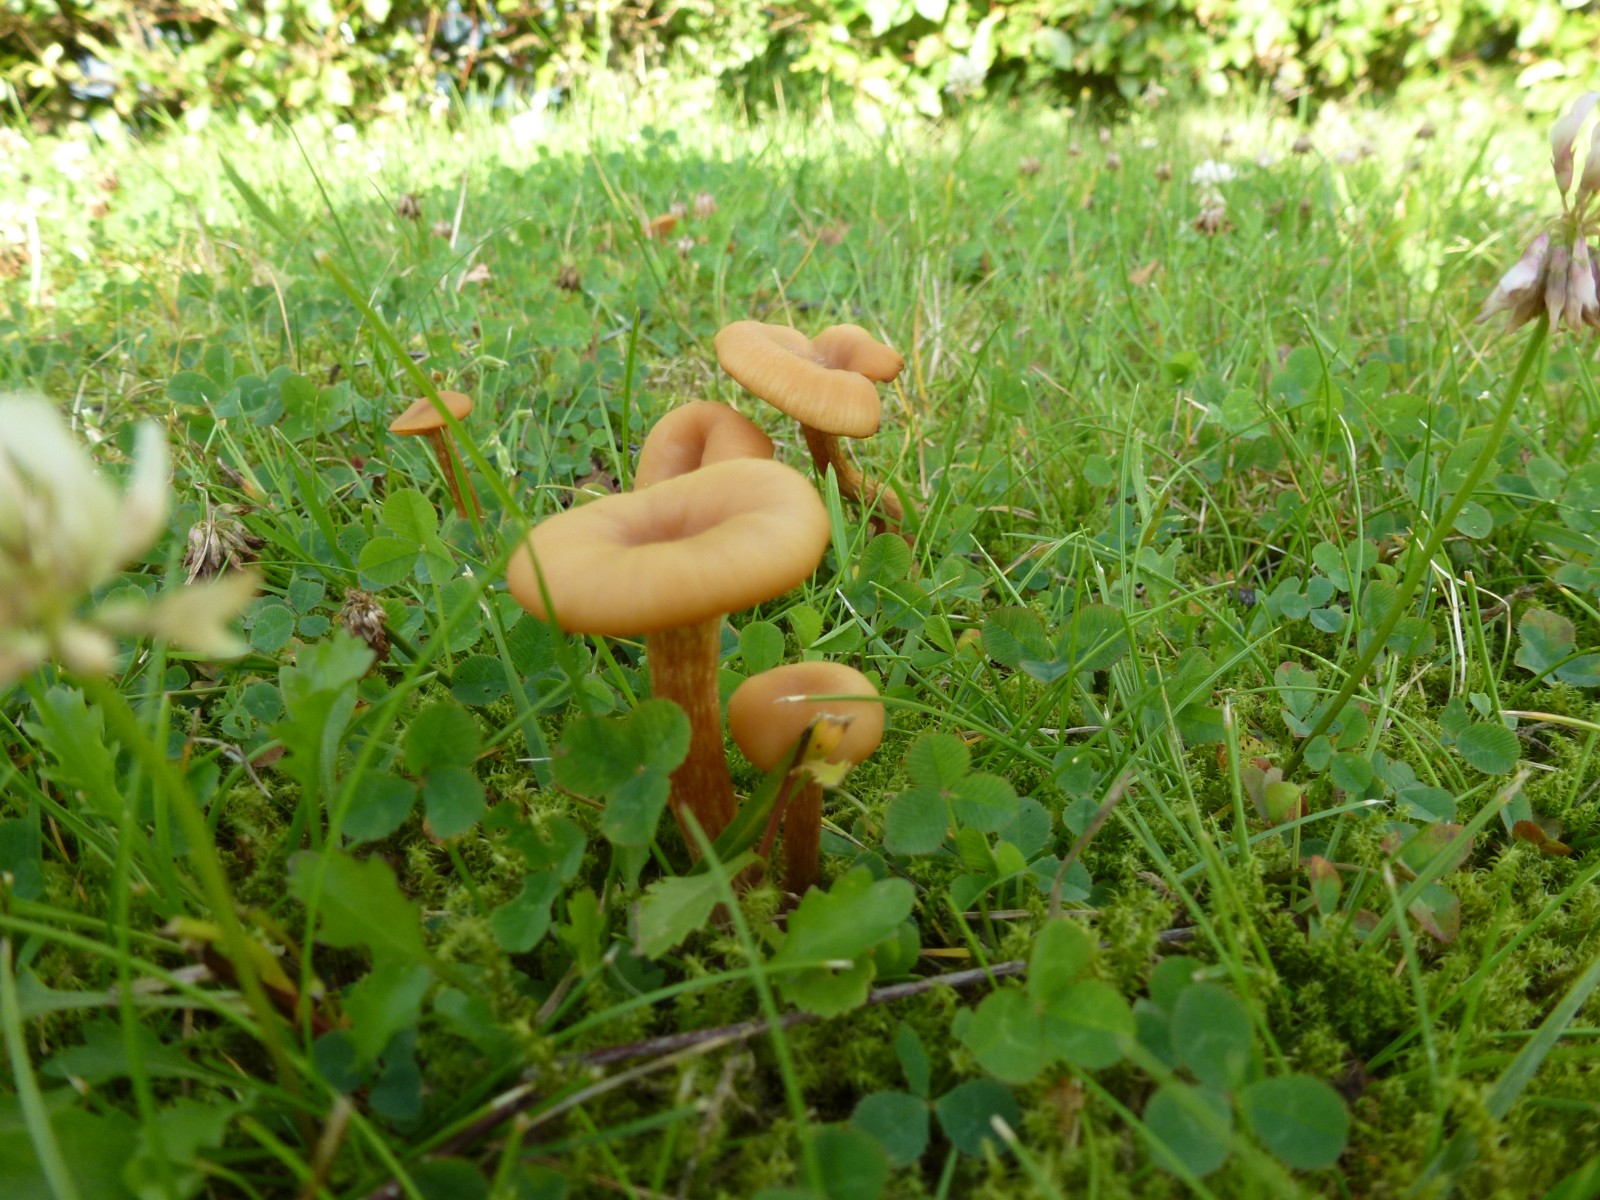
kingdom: Fungi
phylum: Basidiomycota
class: Agaricomycetes
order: Agaricales
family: Hydnangiaceae
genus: Laccaria
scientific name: Laccaria laccata
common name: rød ametysthat
